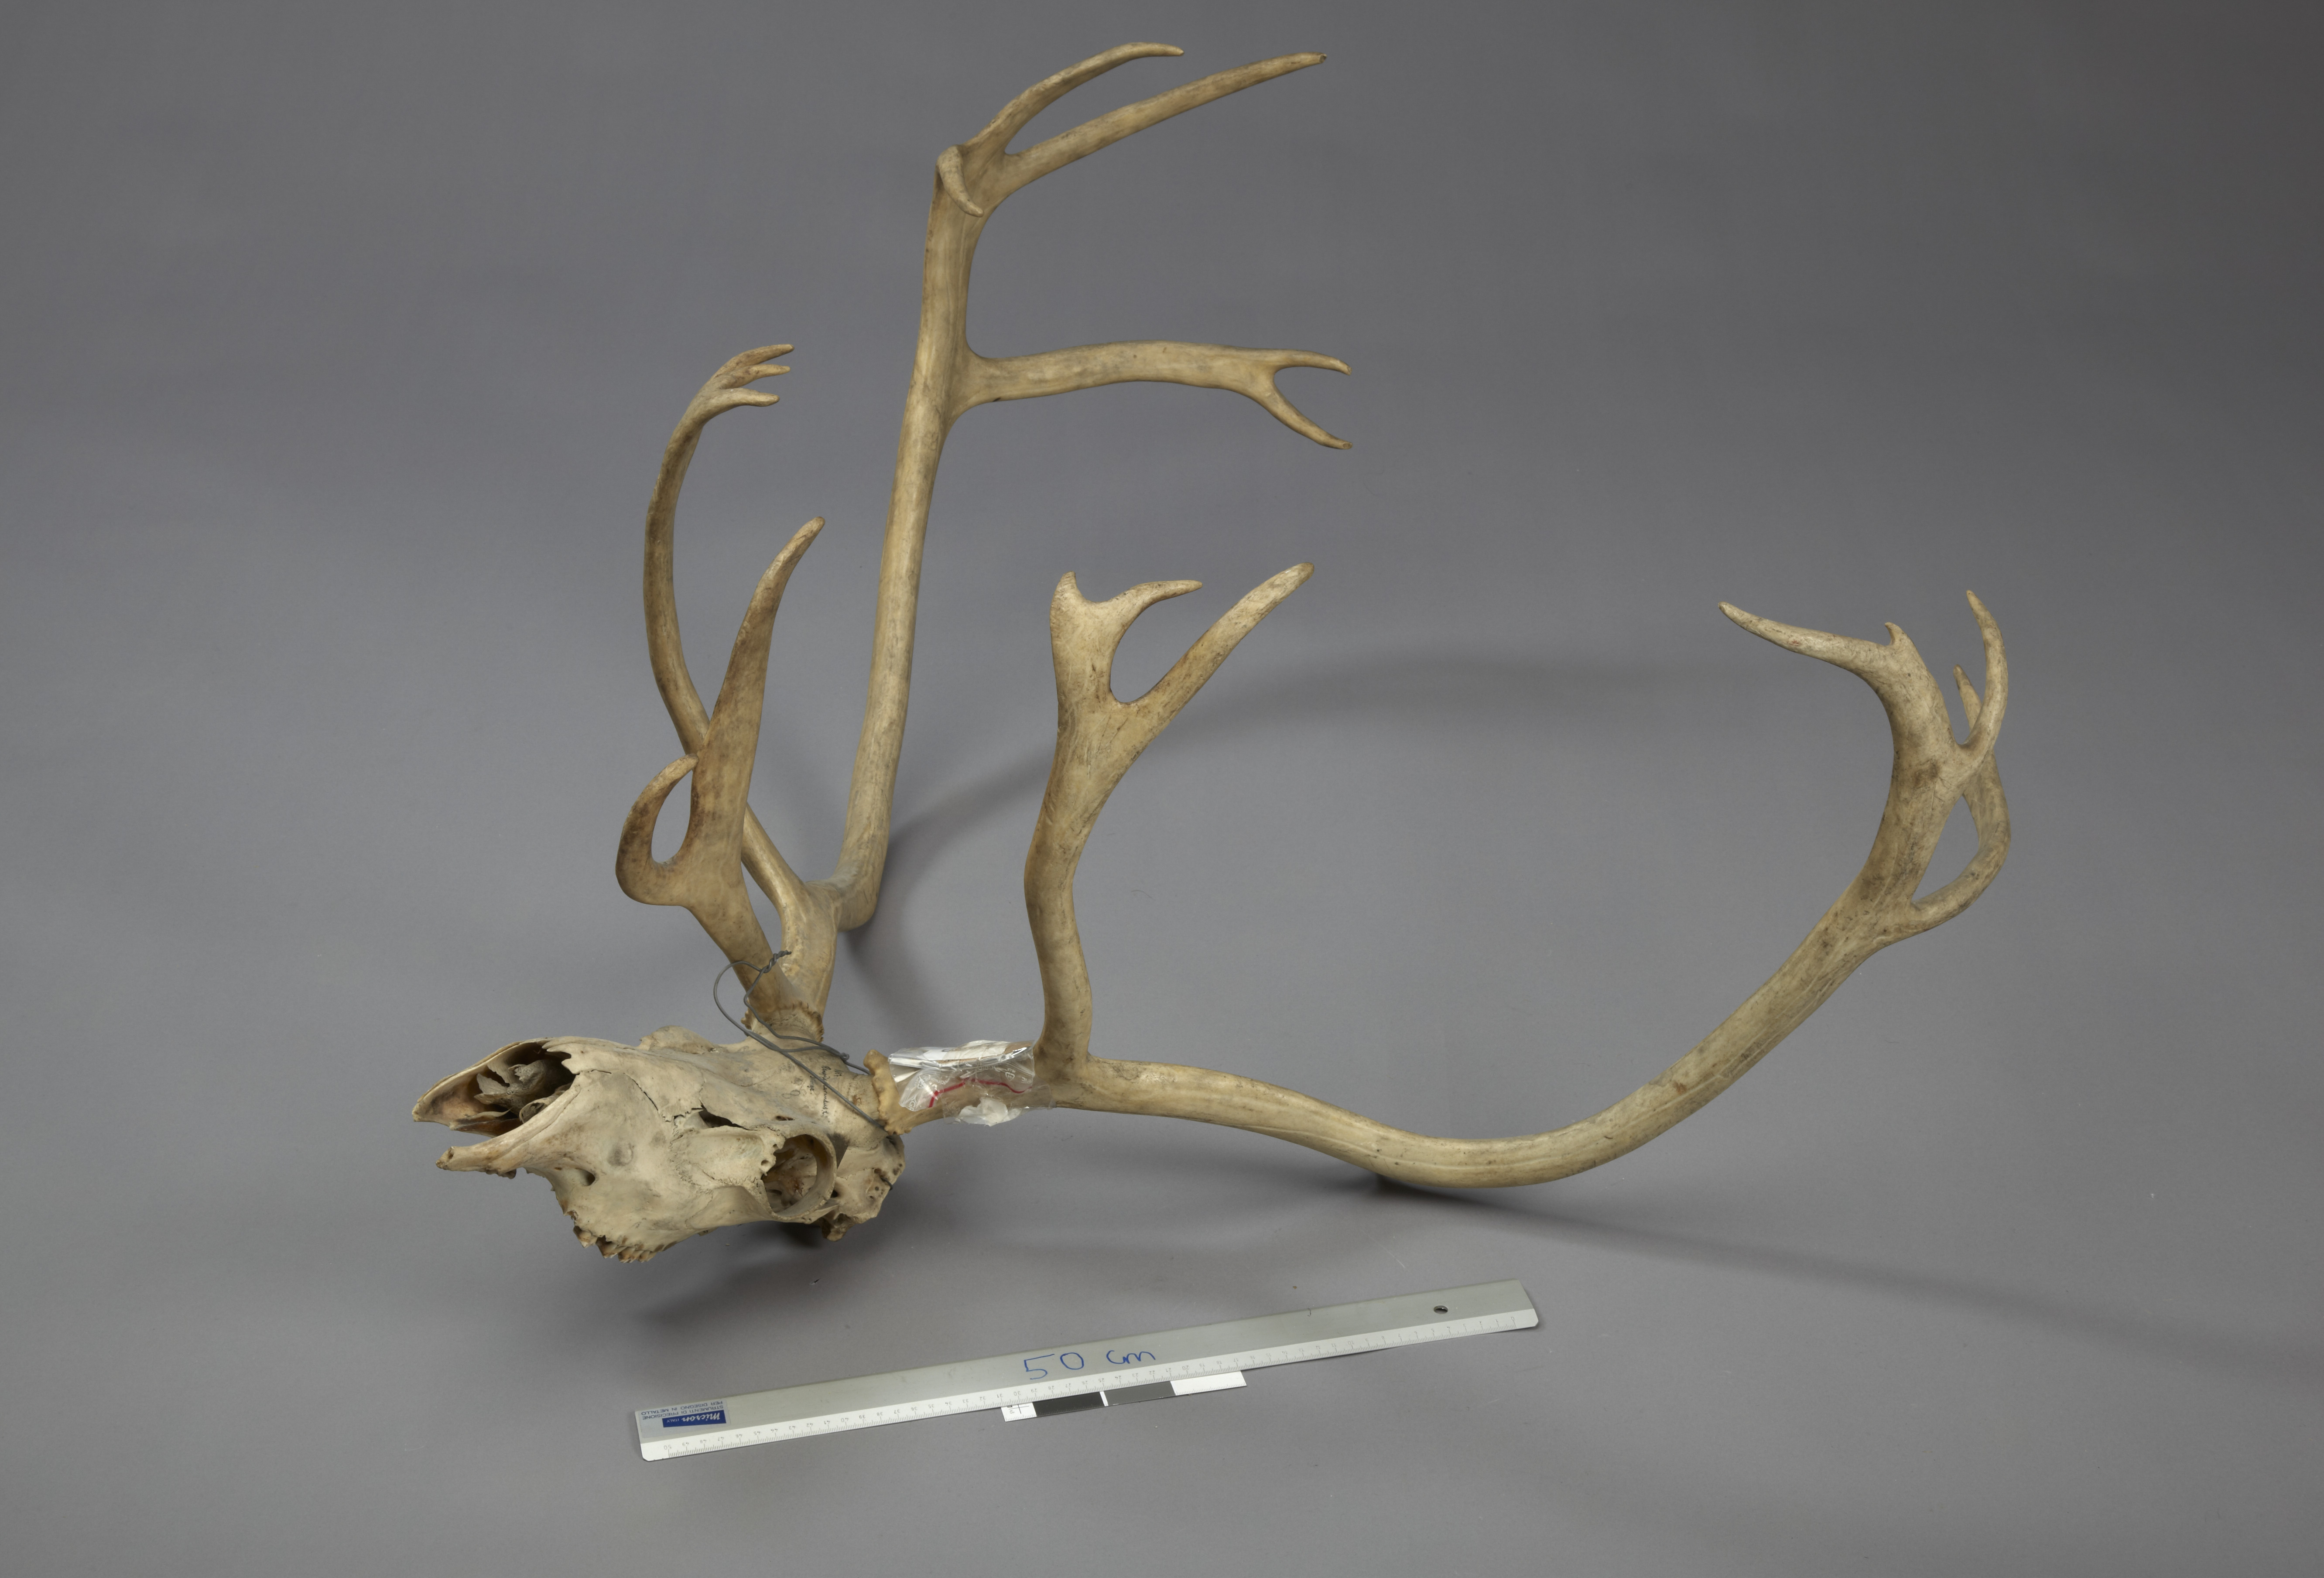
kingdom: Animalia
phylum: Chordata
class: Mammalia
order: Artiodactyla
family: Cervidae
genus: Rangifer
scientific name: Rangifer tarandus
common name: Reindeer
